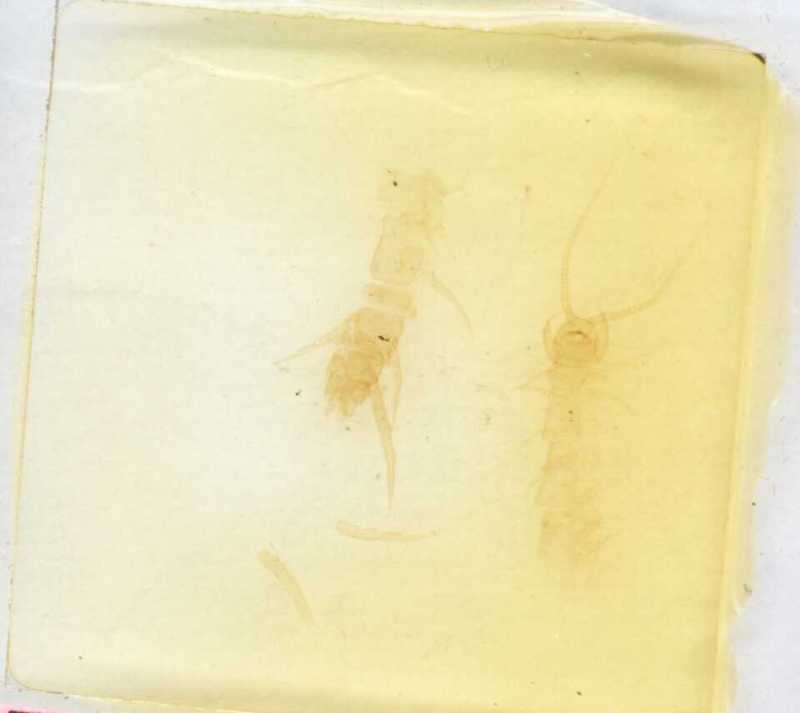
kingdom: Animalia
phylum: Arthropoda
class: Chilopoda
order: Lithobiomorpha
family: Lithobiidae
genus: Lithobius
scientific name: Lithobius trebinjanus
